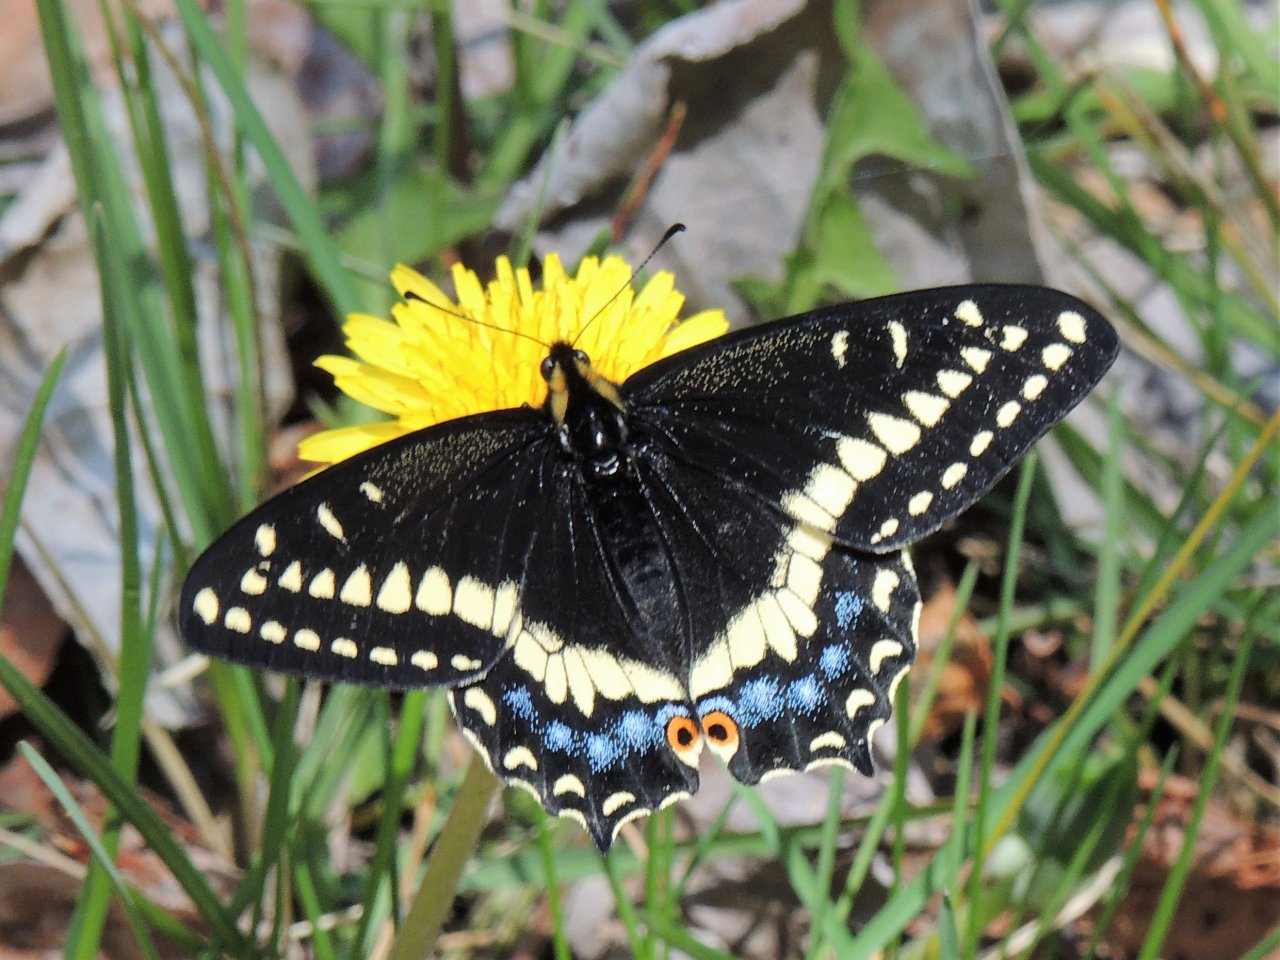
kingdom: Animalia
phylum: Arthropoda
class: Insecta
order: Lepidoptera
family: Papilionidae
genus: Papilio
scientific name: Papilio indra
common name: Indra Swallowtail
